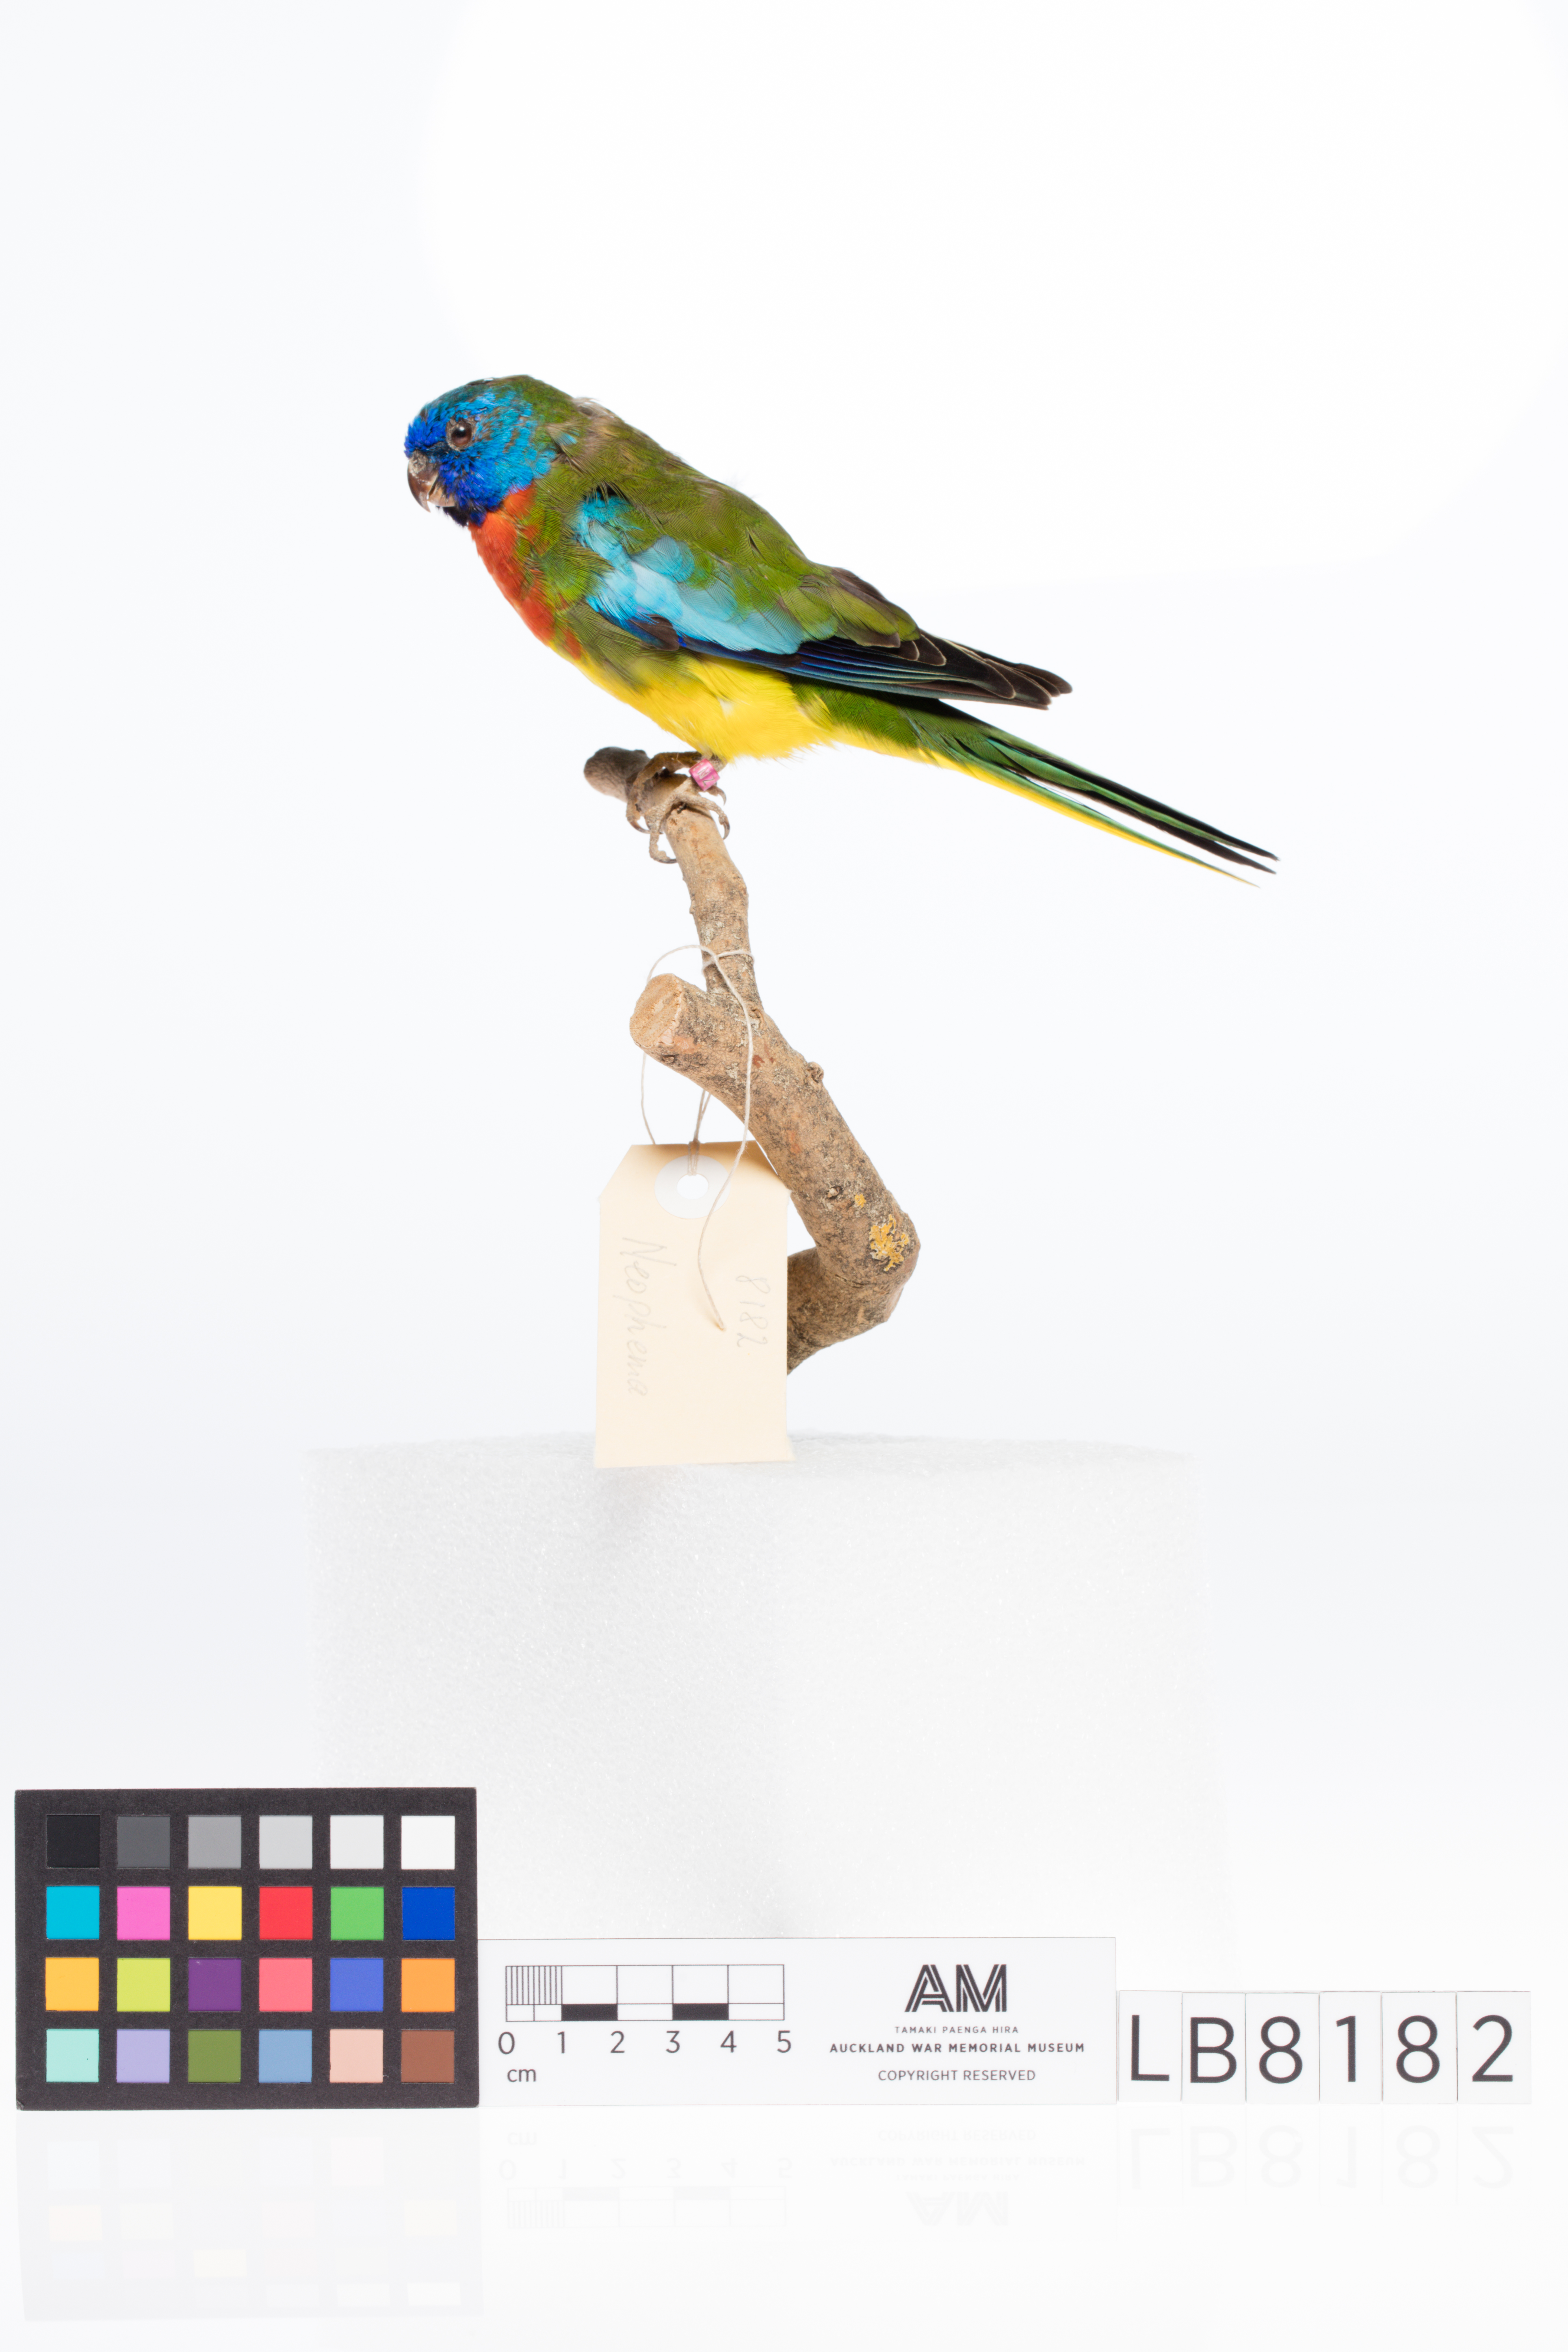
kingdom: Animalia
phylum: Chordata
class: Aves
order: Psittaciformes
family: Psittacidae
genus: Neophema
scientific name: Neophema splendida
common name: Scarlet-chested parrot
